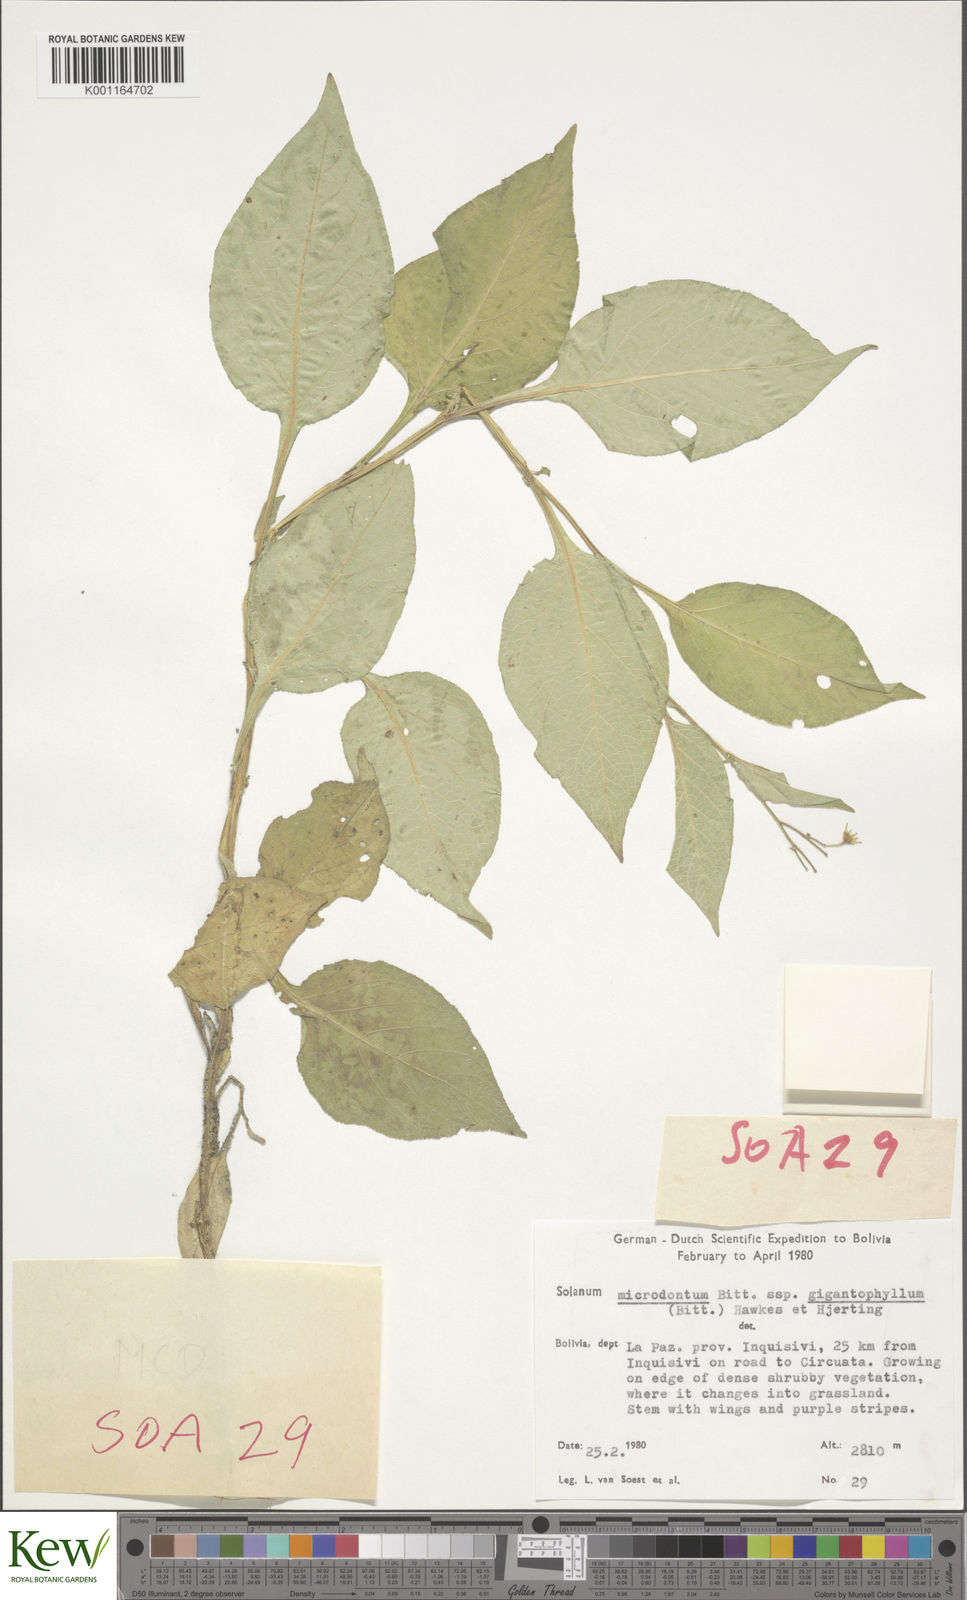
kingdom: Plantae
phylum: Tracheophyta
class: Magnoliopsida
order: Solanales
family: Solanaceae
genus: Solanum
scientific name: Solanum microdontum
